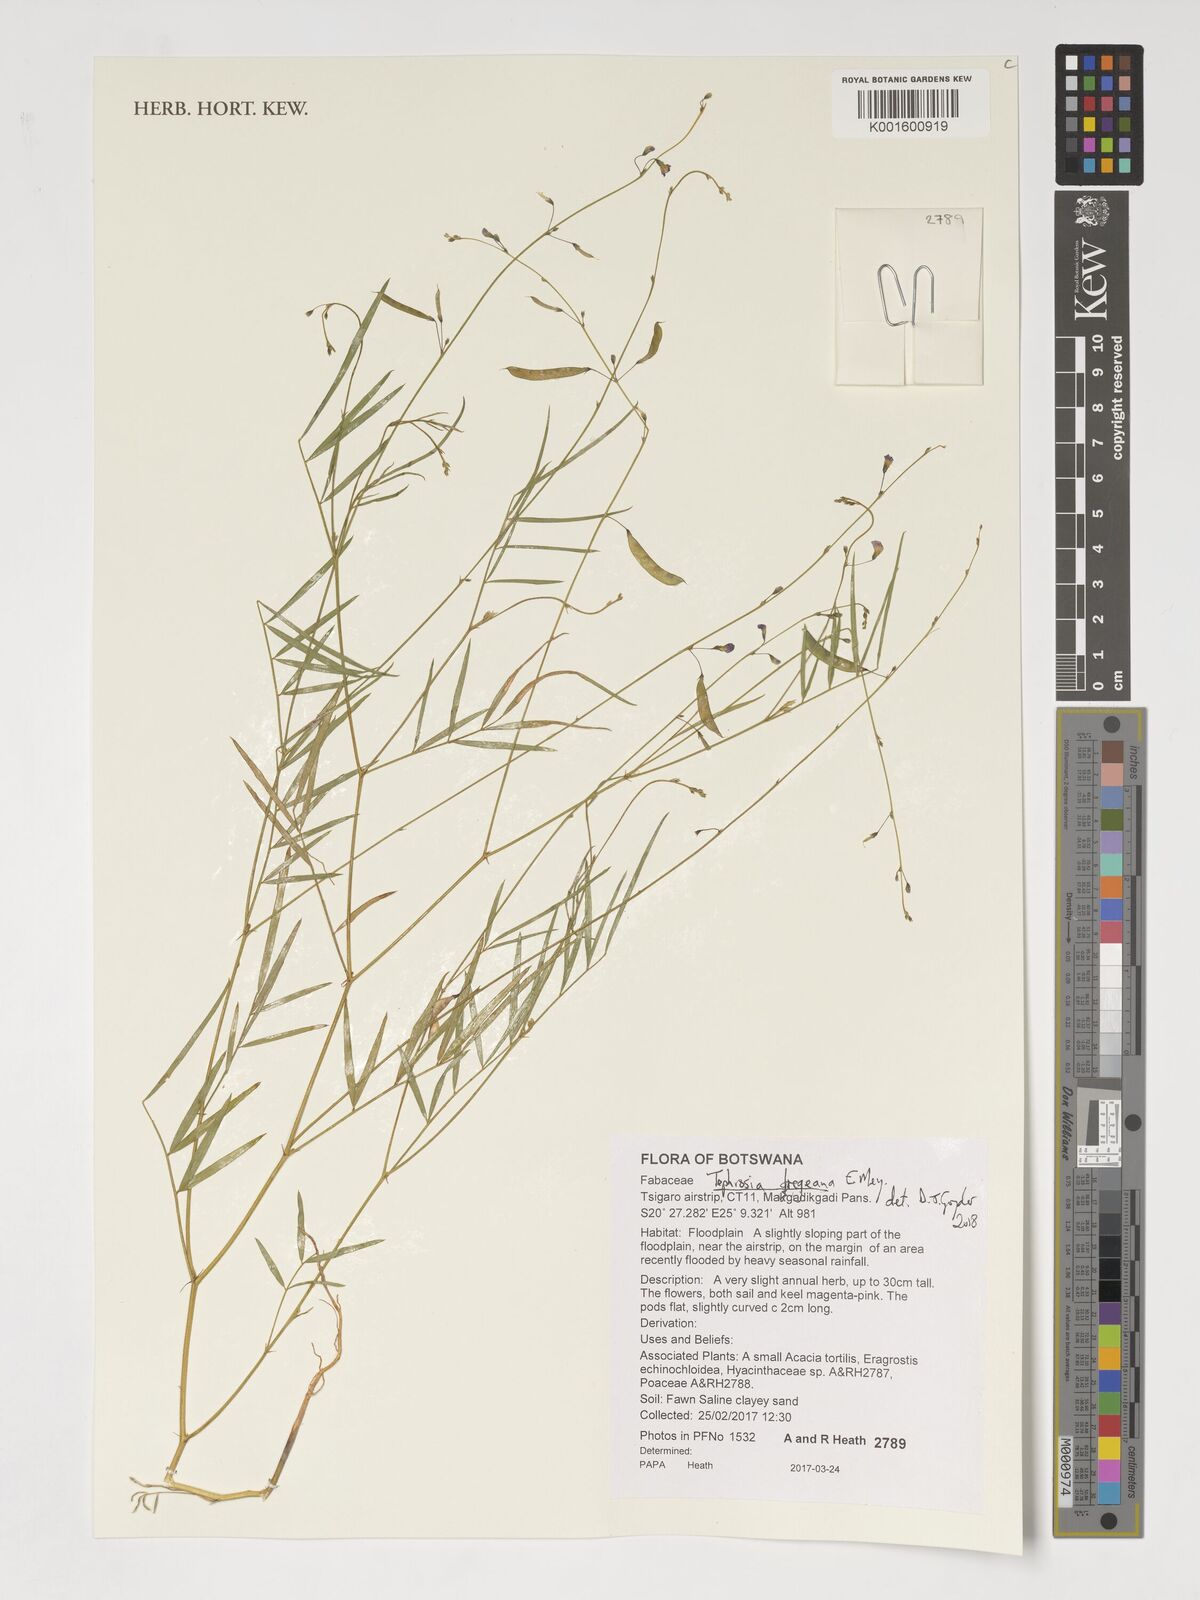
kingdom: Plantae
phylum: Tracheophyta
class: Magnoliopsida
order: Fabales
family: Fabaceae
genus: Tephrosia
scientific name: Tephrosia dregeana
